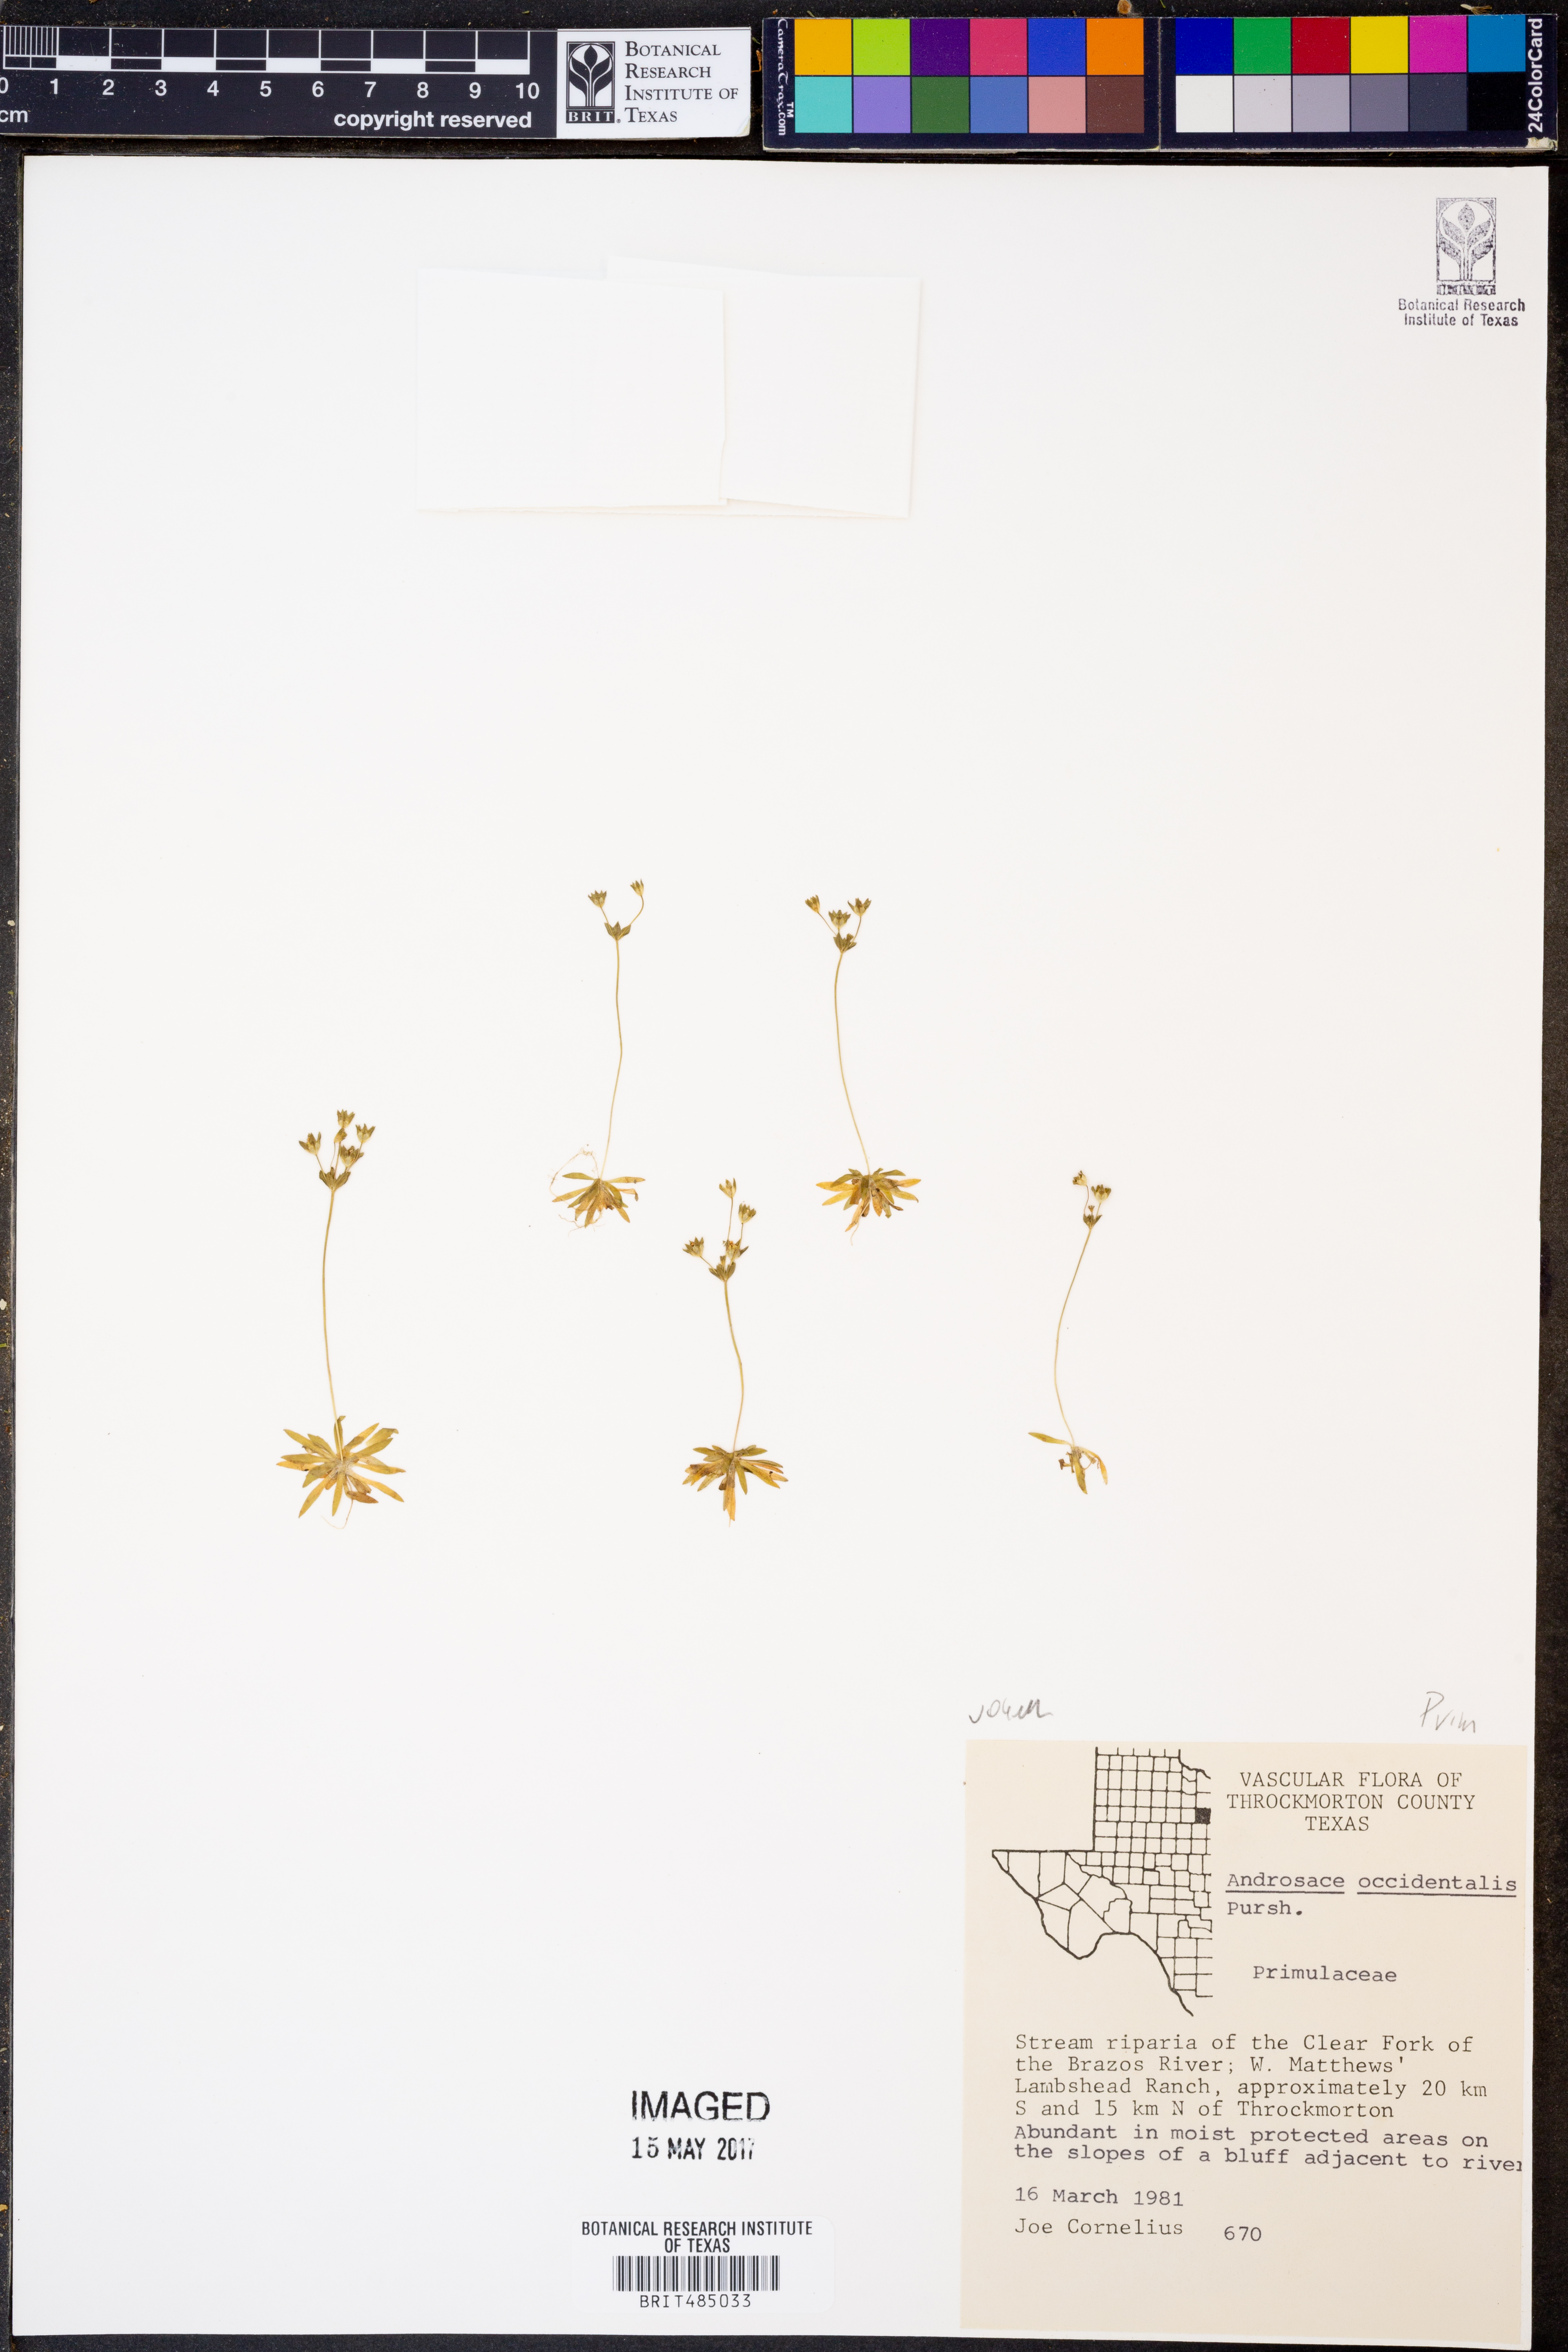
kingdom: Plantae
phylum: Tracheophyta
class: Magnoliopsida
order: Ericales
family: Primulaceae
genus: Androsace
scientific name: Androsace occidentalis
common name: West rock-jasmine
